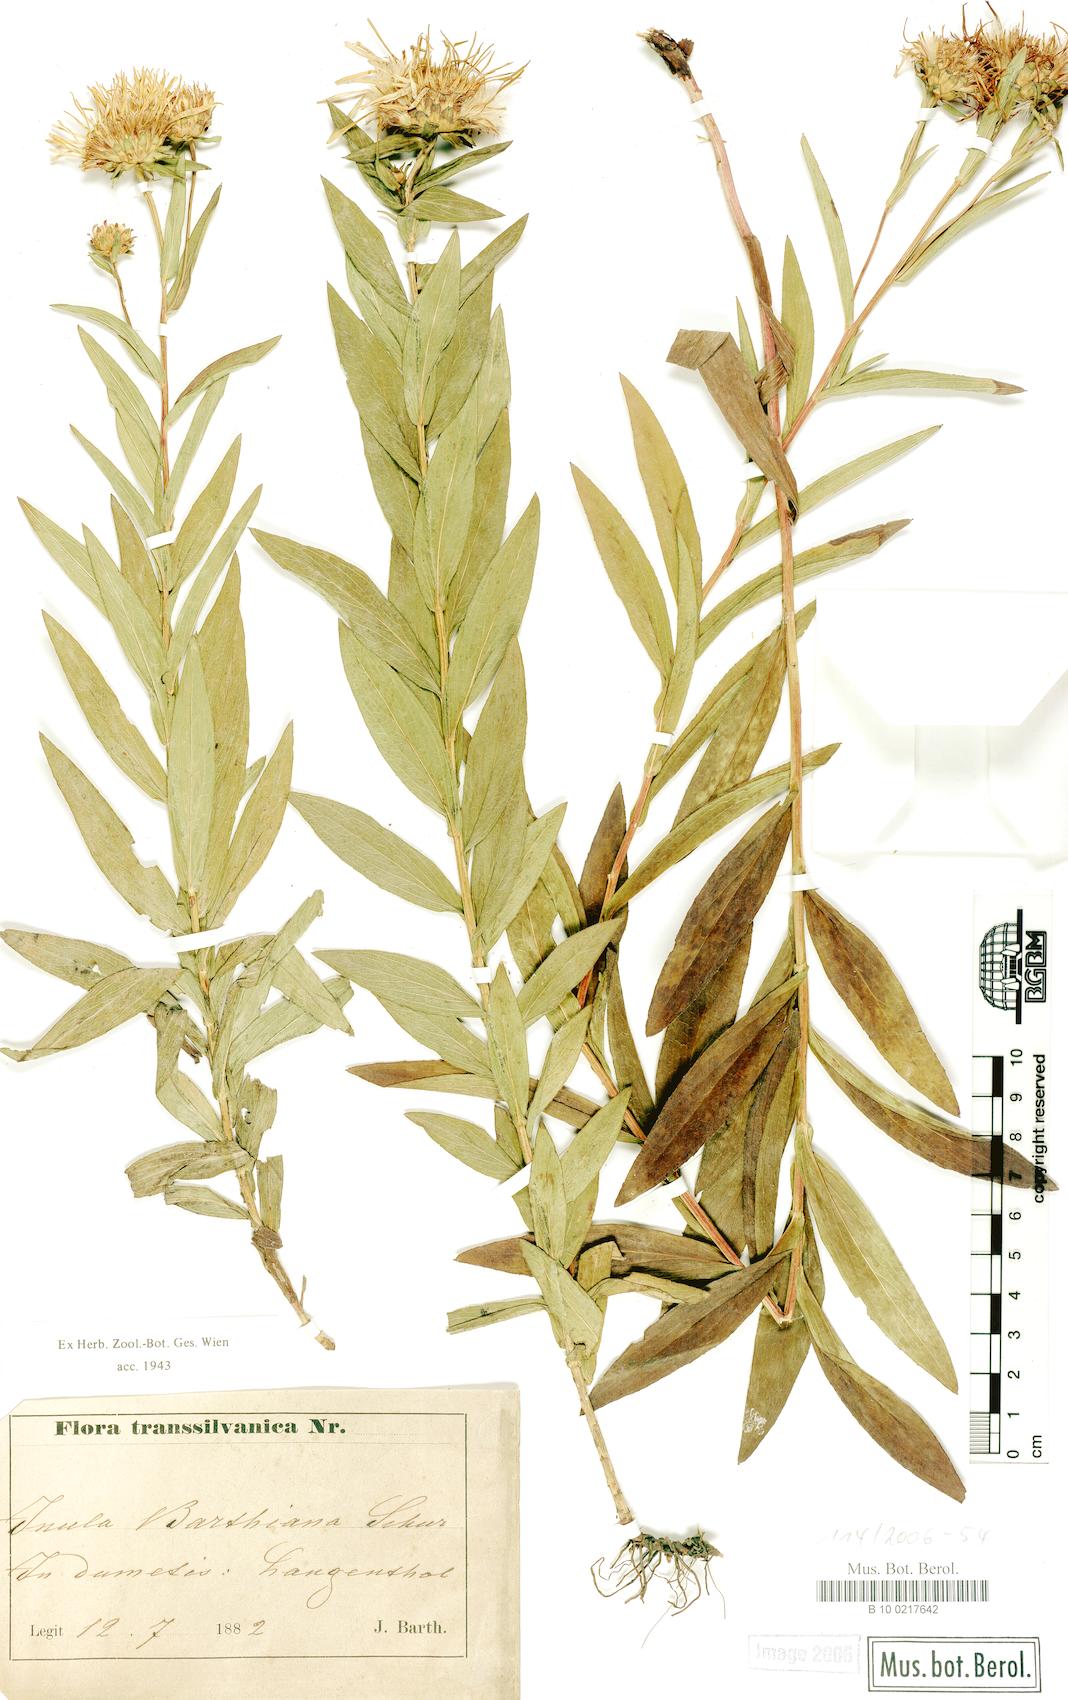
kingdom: Plantae
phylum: Tracheophyta
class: Magnoliopsida
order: Asterales
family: Asteraceae
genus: Pentanema
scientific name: Pentanema strictum
